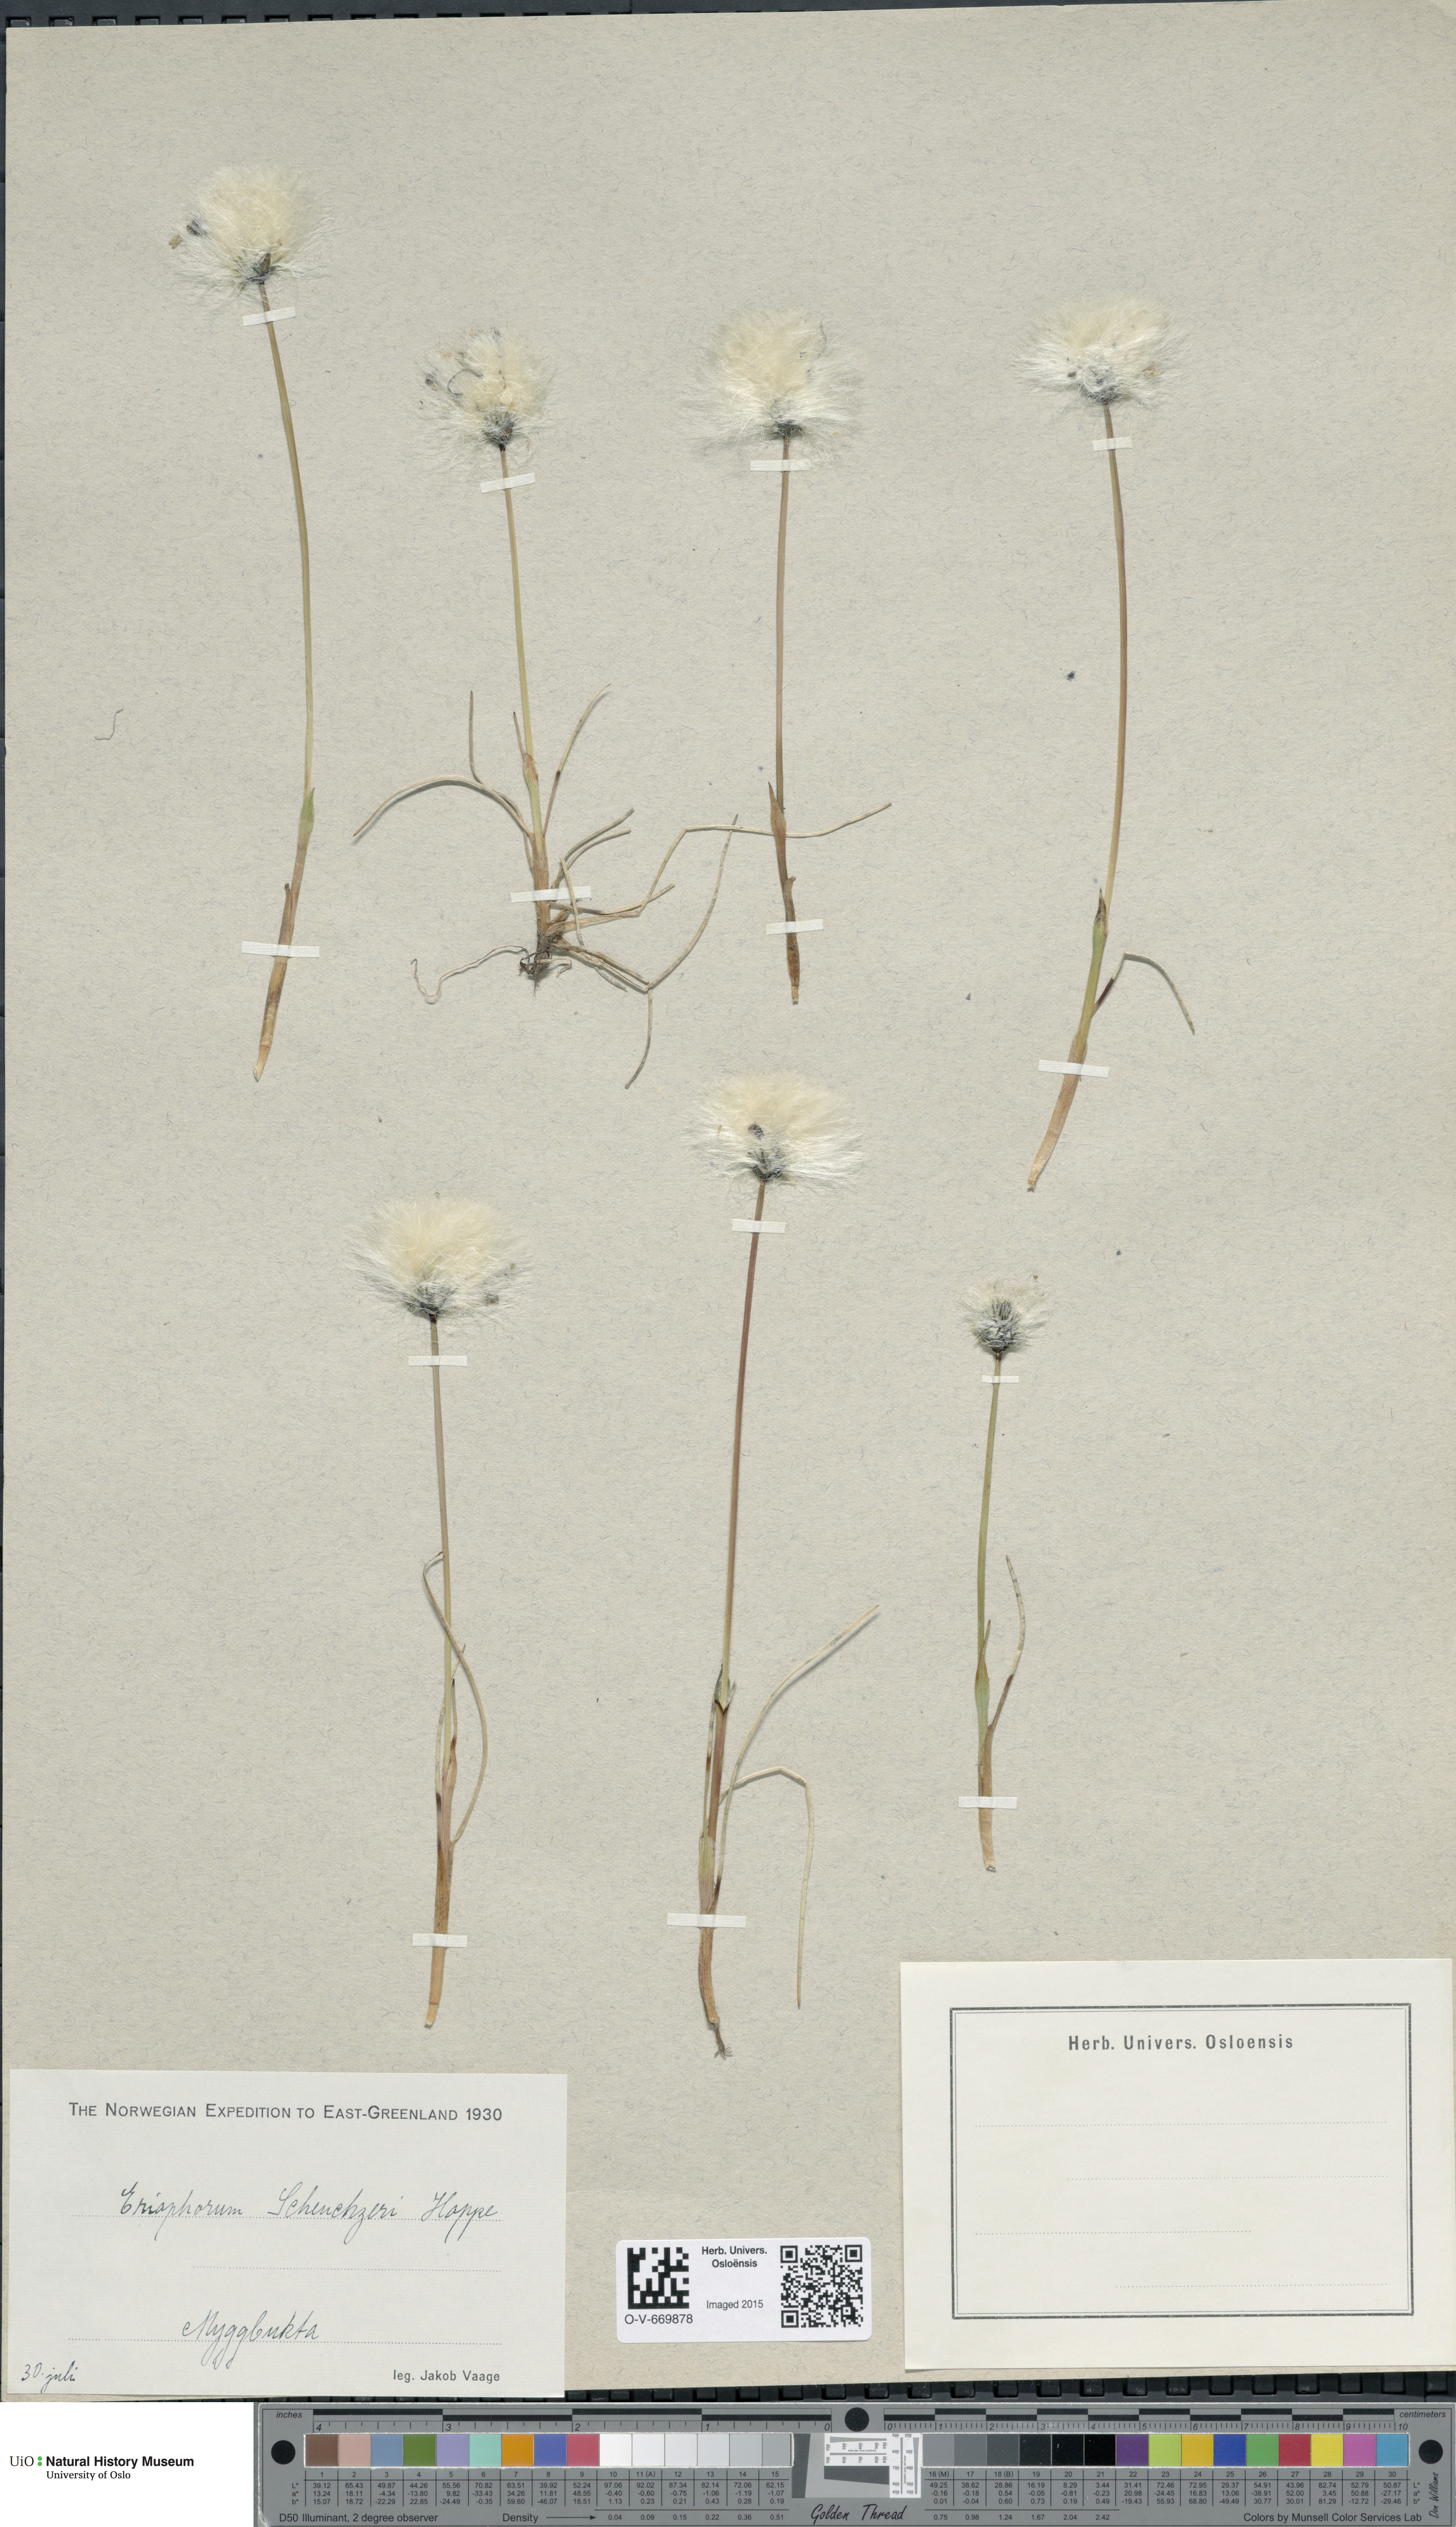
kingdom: Plantae
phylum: Tracheophyta
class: Liliopsida
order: Poales
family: Cyperaceae
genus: Eriophorum
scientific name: Eriophorum scheuchzeri
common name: Scheuchzer's cottongrass
